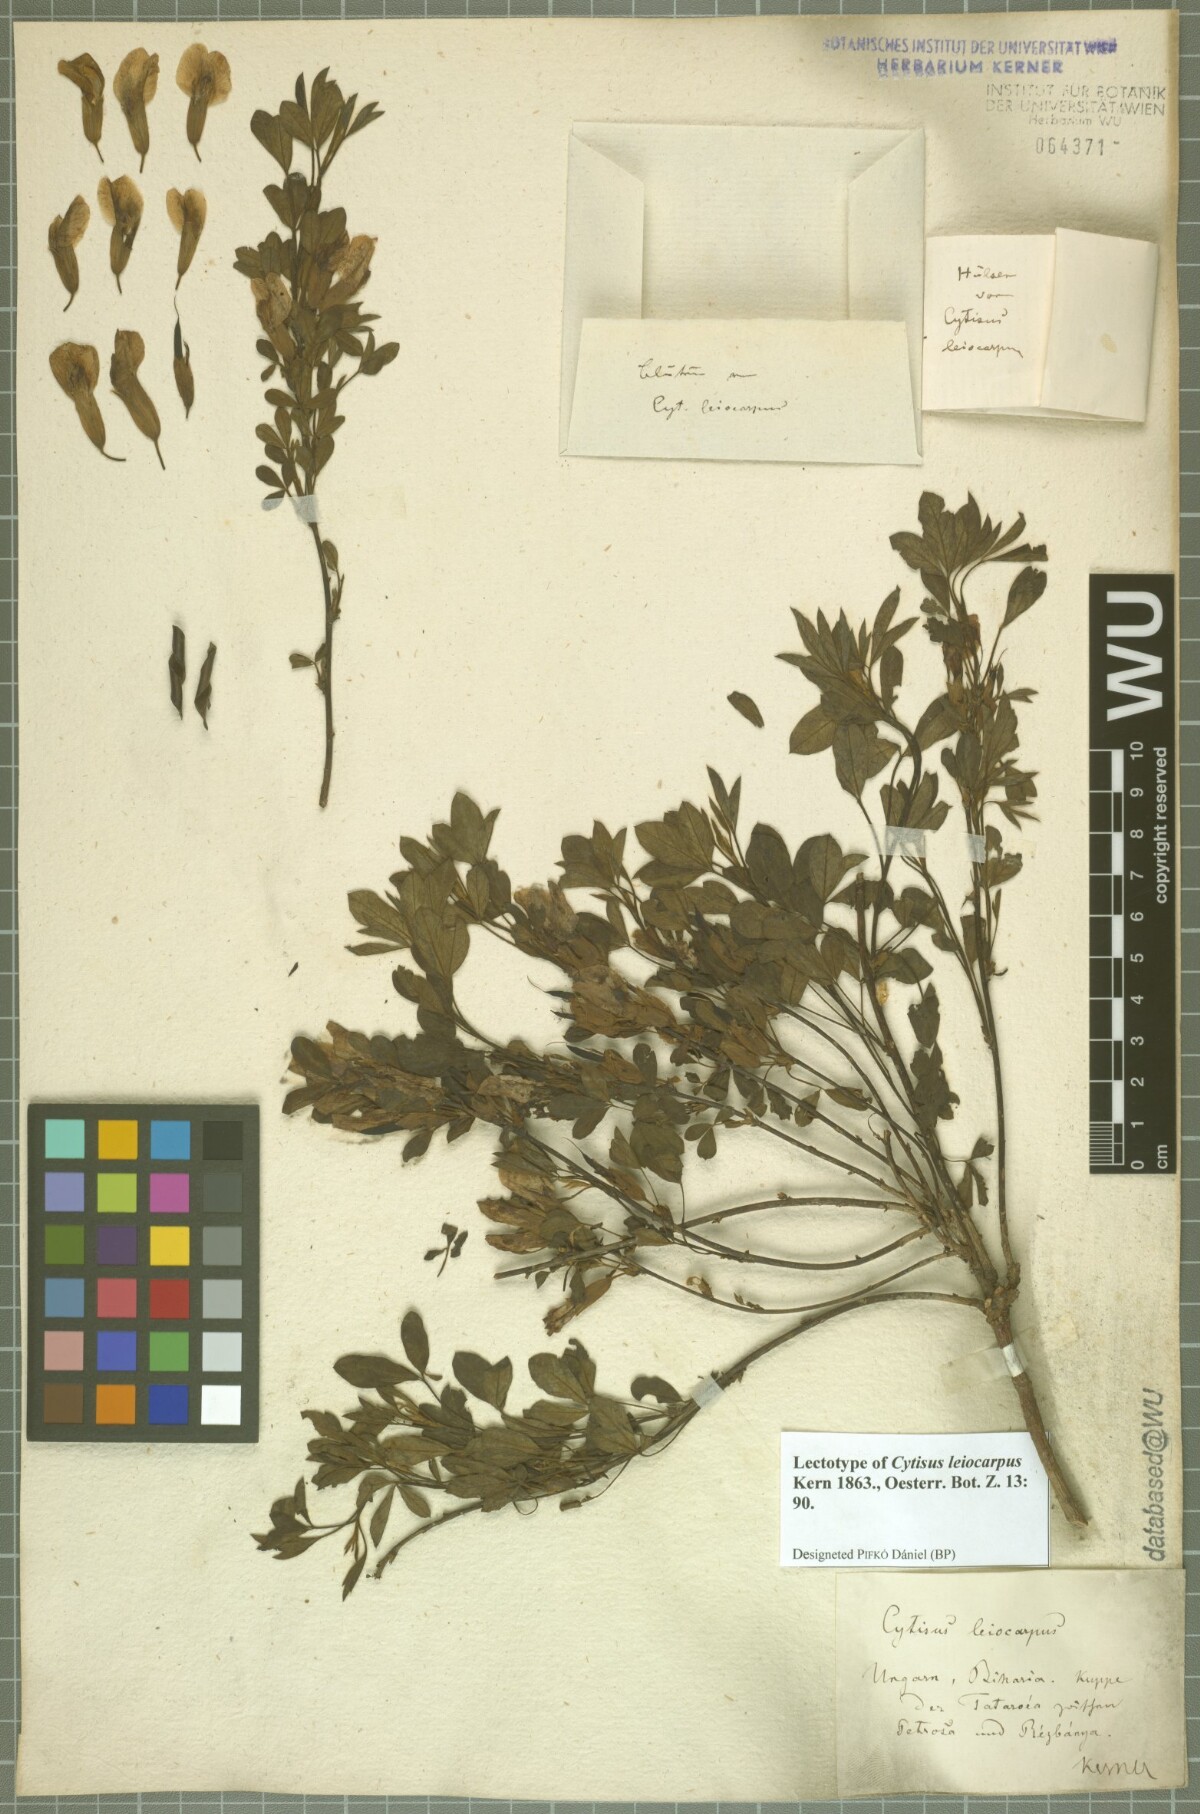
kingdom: Plantae
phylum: Tracheophyta
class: Magnoliopsida
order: Fabales
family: Fabaceae
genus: Chamaecytisus
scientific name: Chamaecytisus leiocarpus
